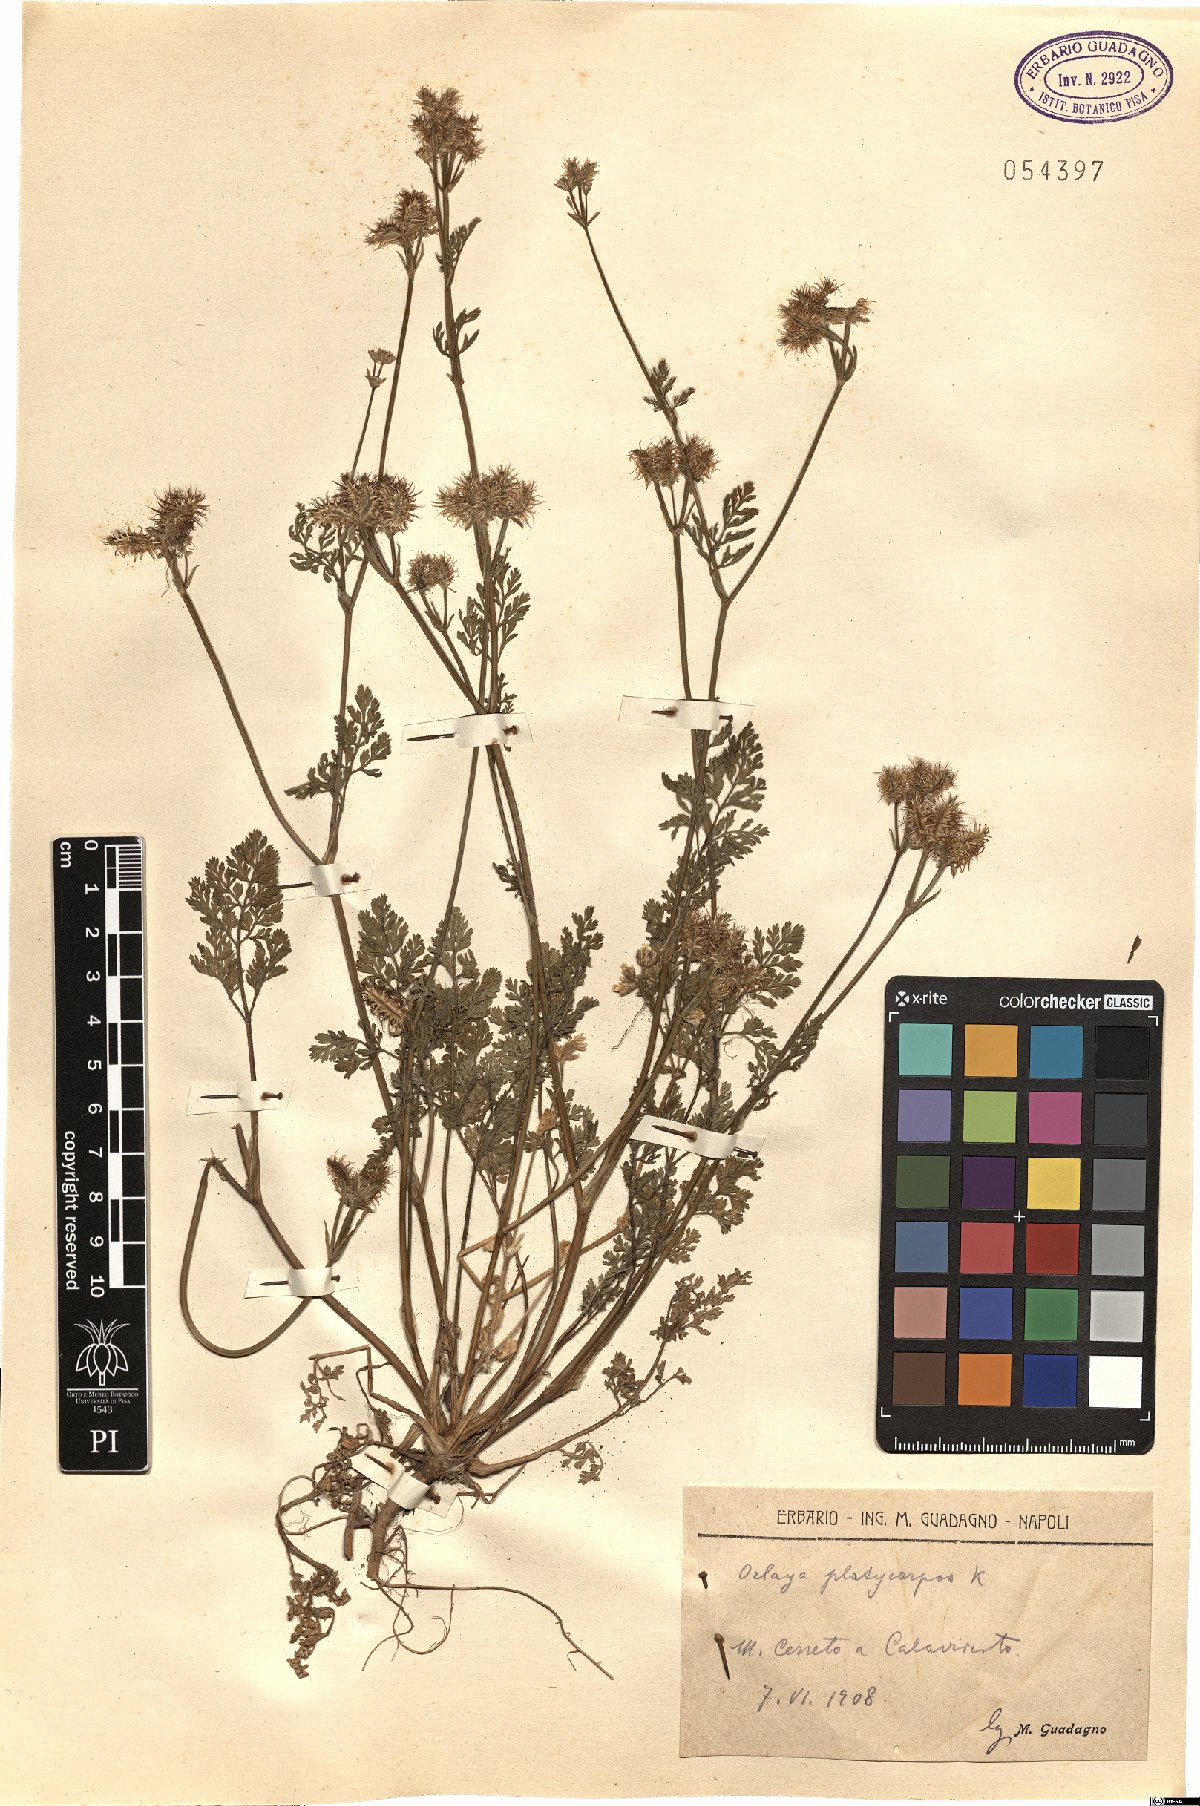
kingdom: Plantae
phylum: Tracheophyta
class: Magnoliopsida
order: Apiales
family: Apiaceae
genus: Orlaya
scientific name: Orlaya daucoides
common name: Flat-fruit orlaya
